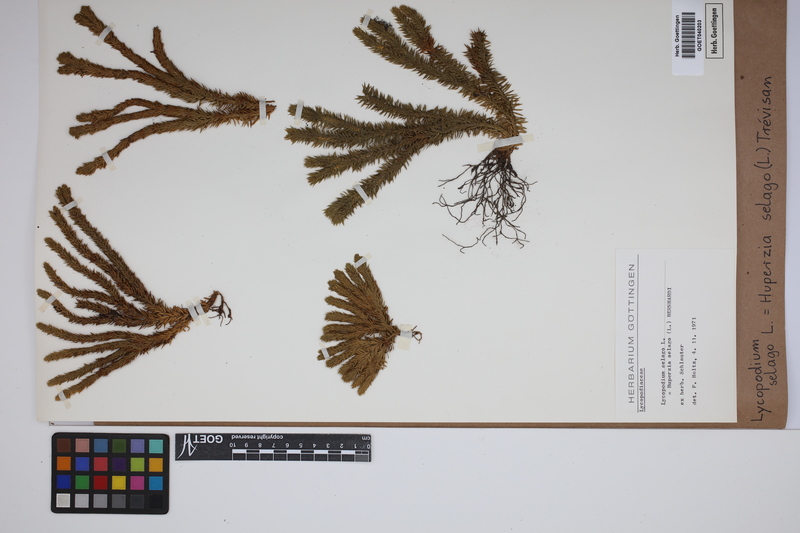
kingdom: Plantae
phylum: Tracheophyta
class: Lycopodiopsida
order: Lycopodiales
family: Lycopodiaceae
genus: Huperzia
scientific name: Huperzia selago
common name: Northern firmoss
